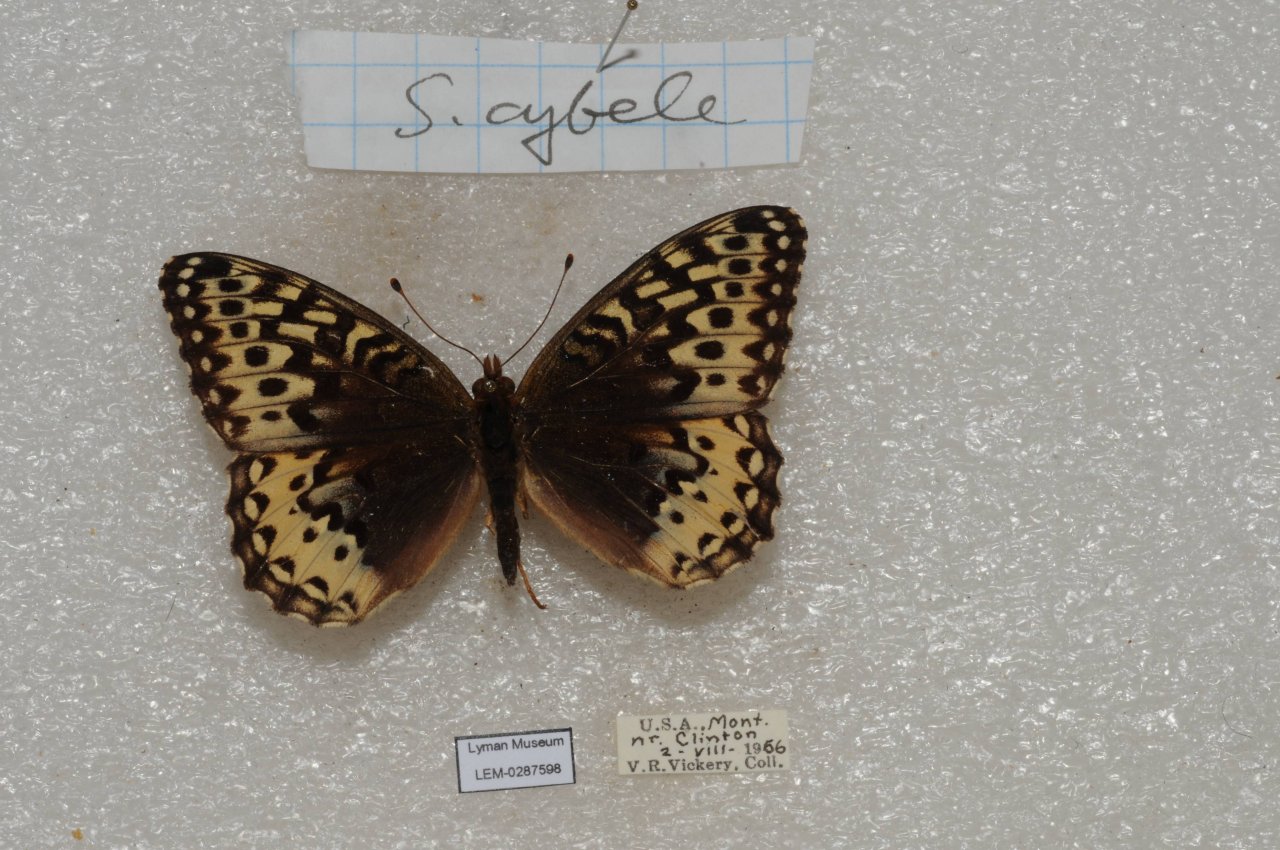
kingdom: Animalia
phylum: Arthropoda
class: Insecta
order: Lepidoptera
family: Nymphalidae
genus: Speyeria
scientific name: Speyeria cybele
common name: Great Spangled Fritillary
